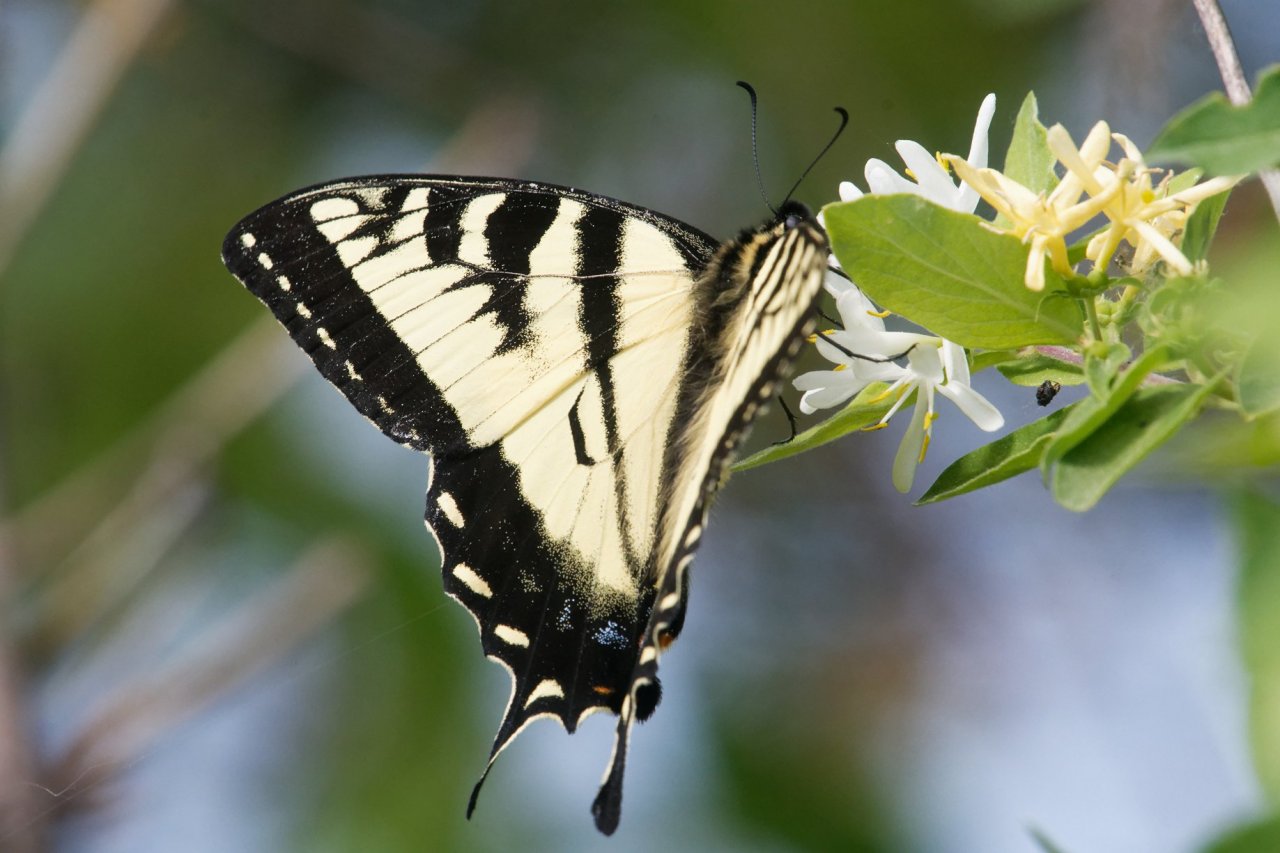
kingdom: Animalia
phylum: Arthropoda
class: Insecta
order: Lepidoptera
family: Papilionidae
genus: Pterourus
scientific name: Pterourus canadensis
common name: Canadian Tiger Swallowtail
